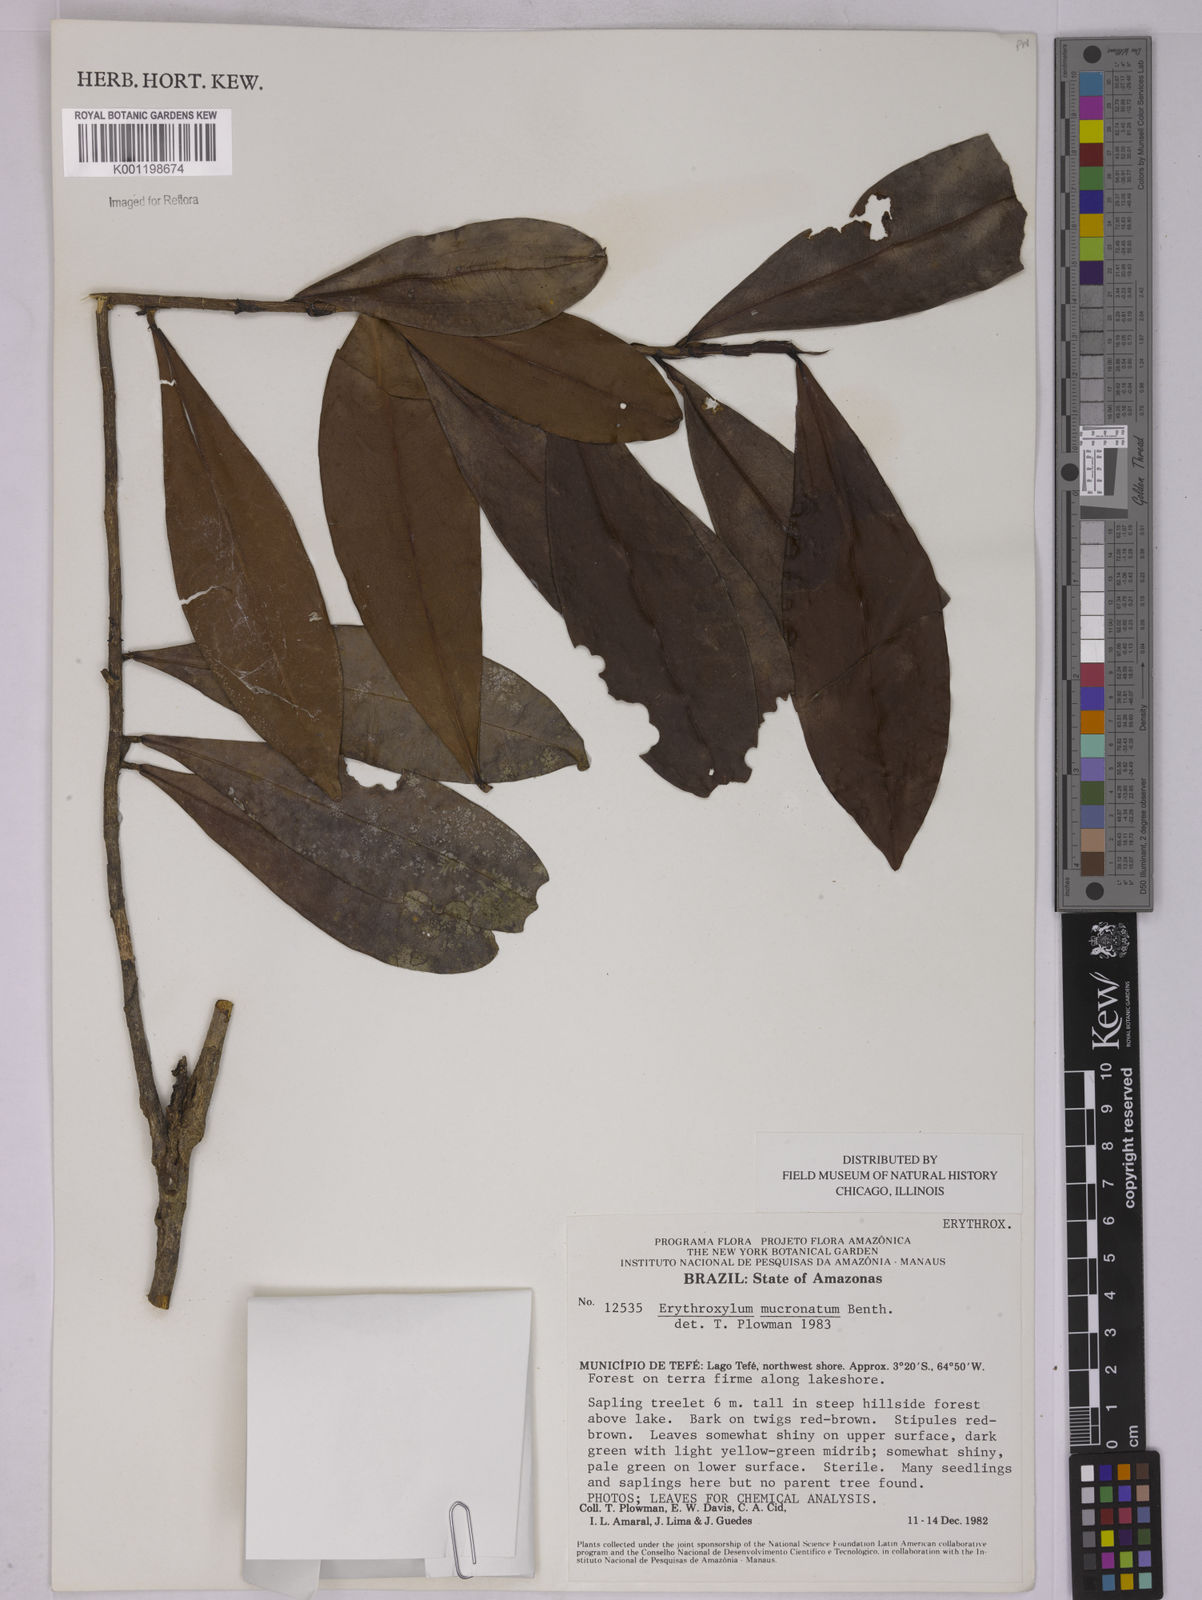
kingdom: Plantae
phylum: Tracheophyta
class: Magnoliopsida
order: Malpighiales
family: Erythroxylaceae
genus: Erythroxylum
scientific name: Erythroxylum mucronatum
